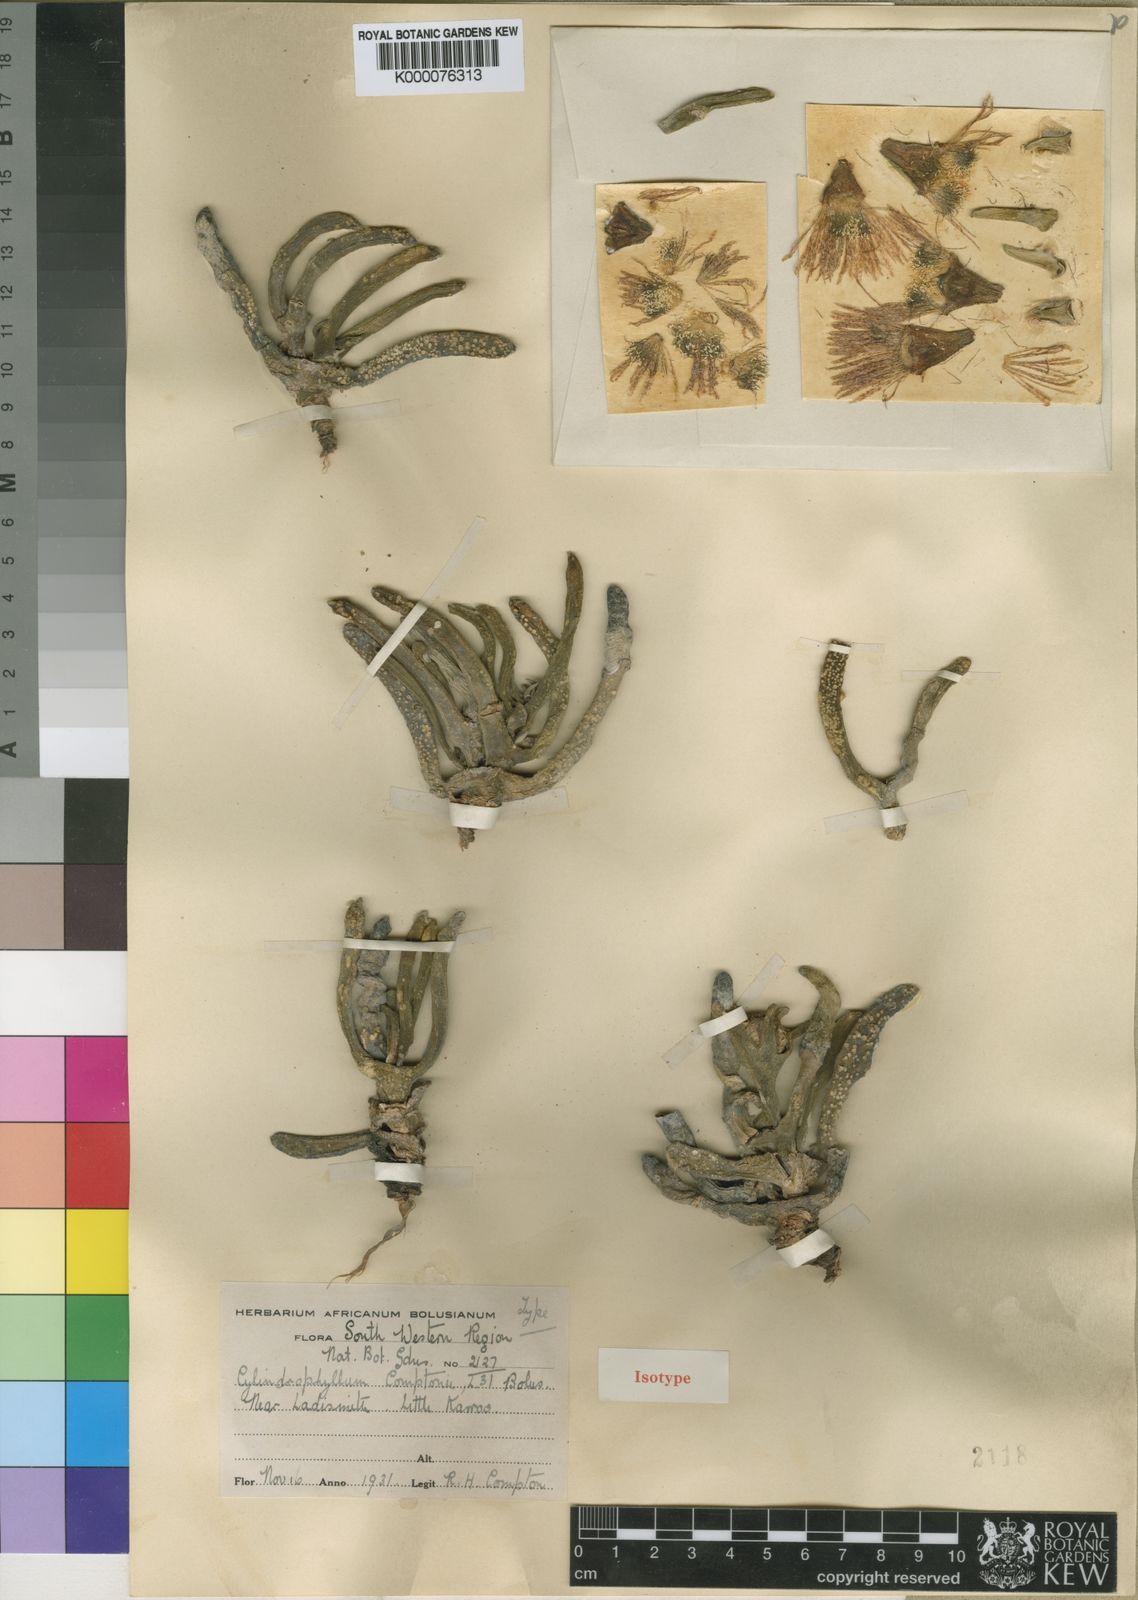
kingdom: Plantae
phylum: Tracheophyta
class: Magnoliopsida
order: Caryophyllales
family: Aizoaceae
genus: Cylindrophyllum
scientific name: Cylindrophyllum comptonii
